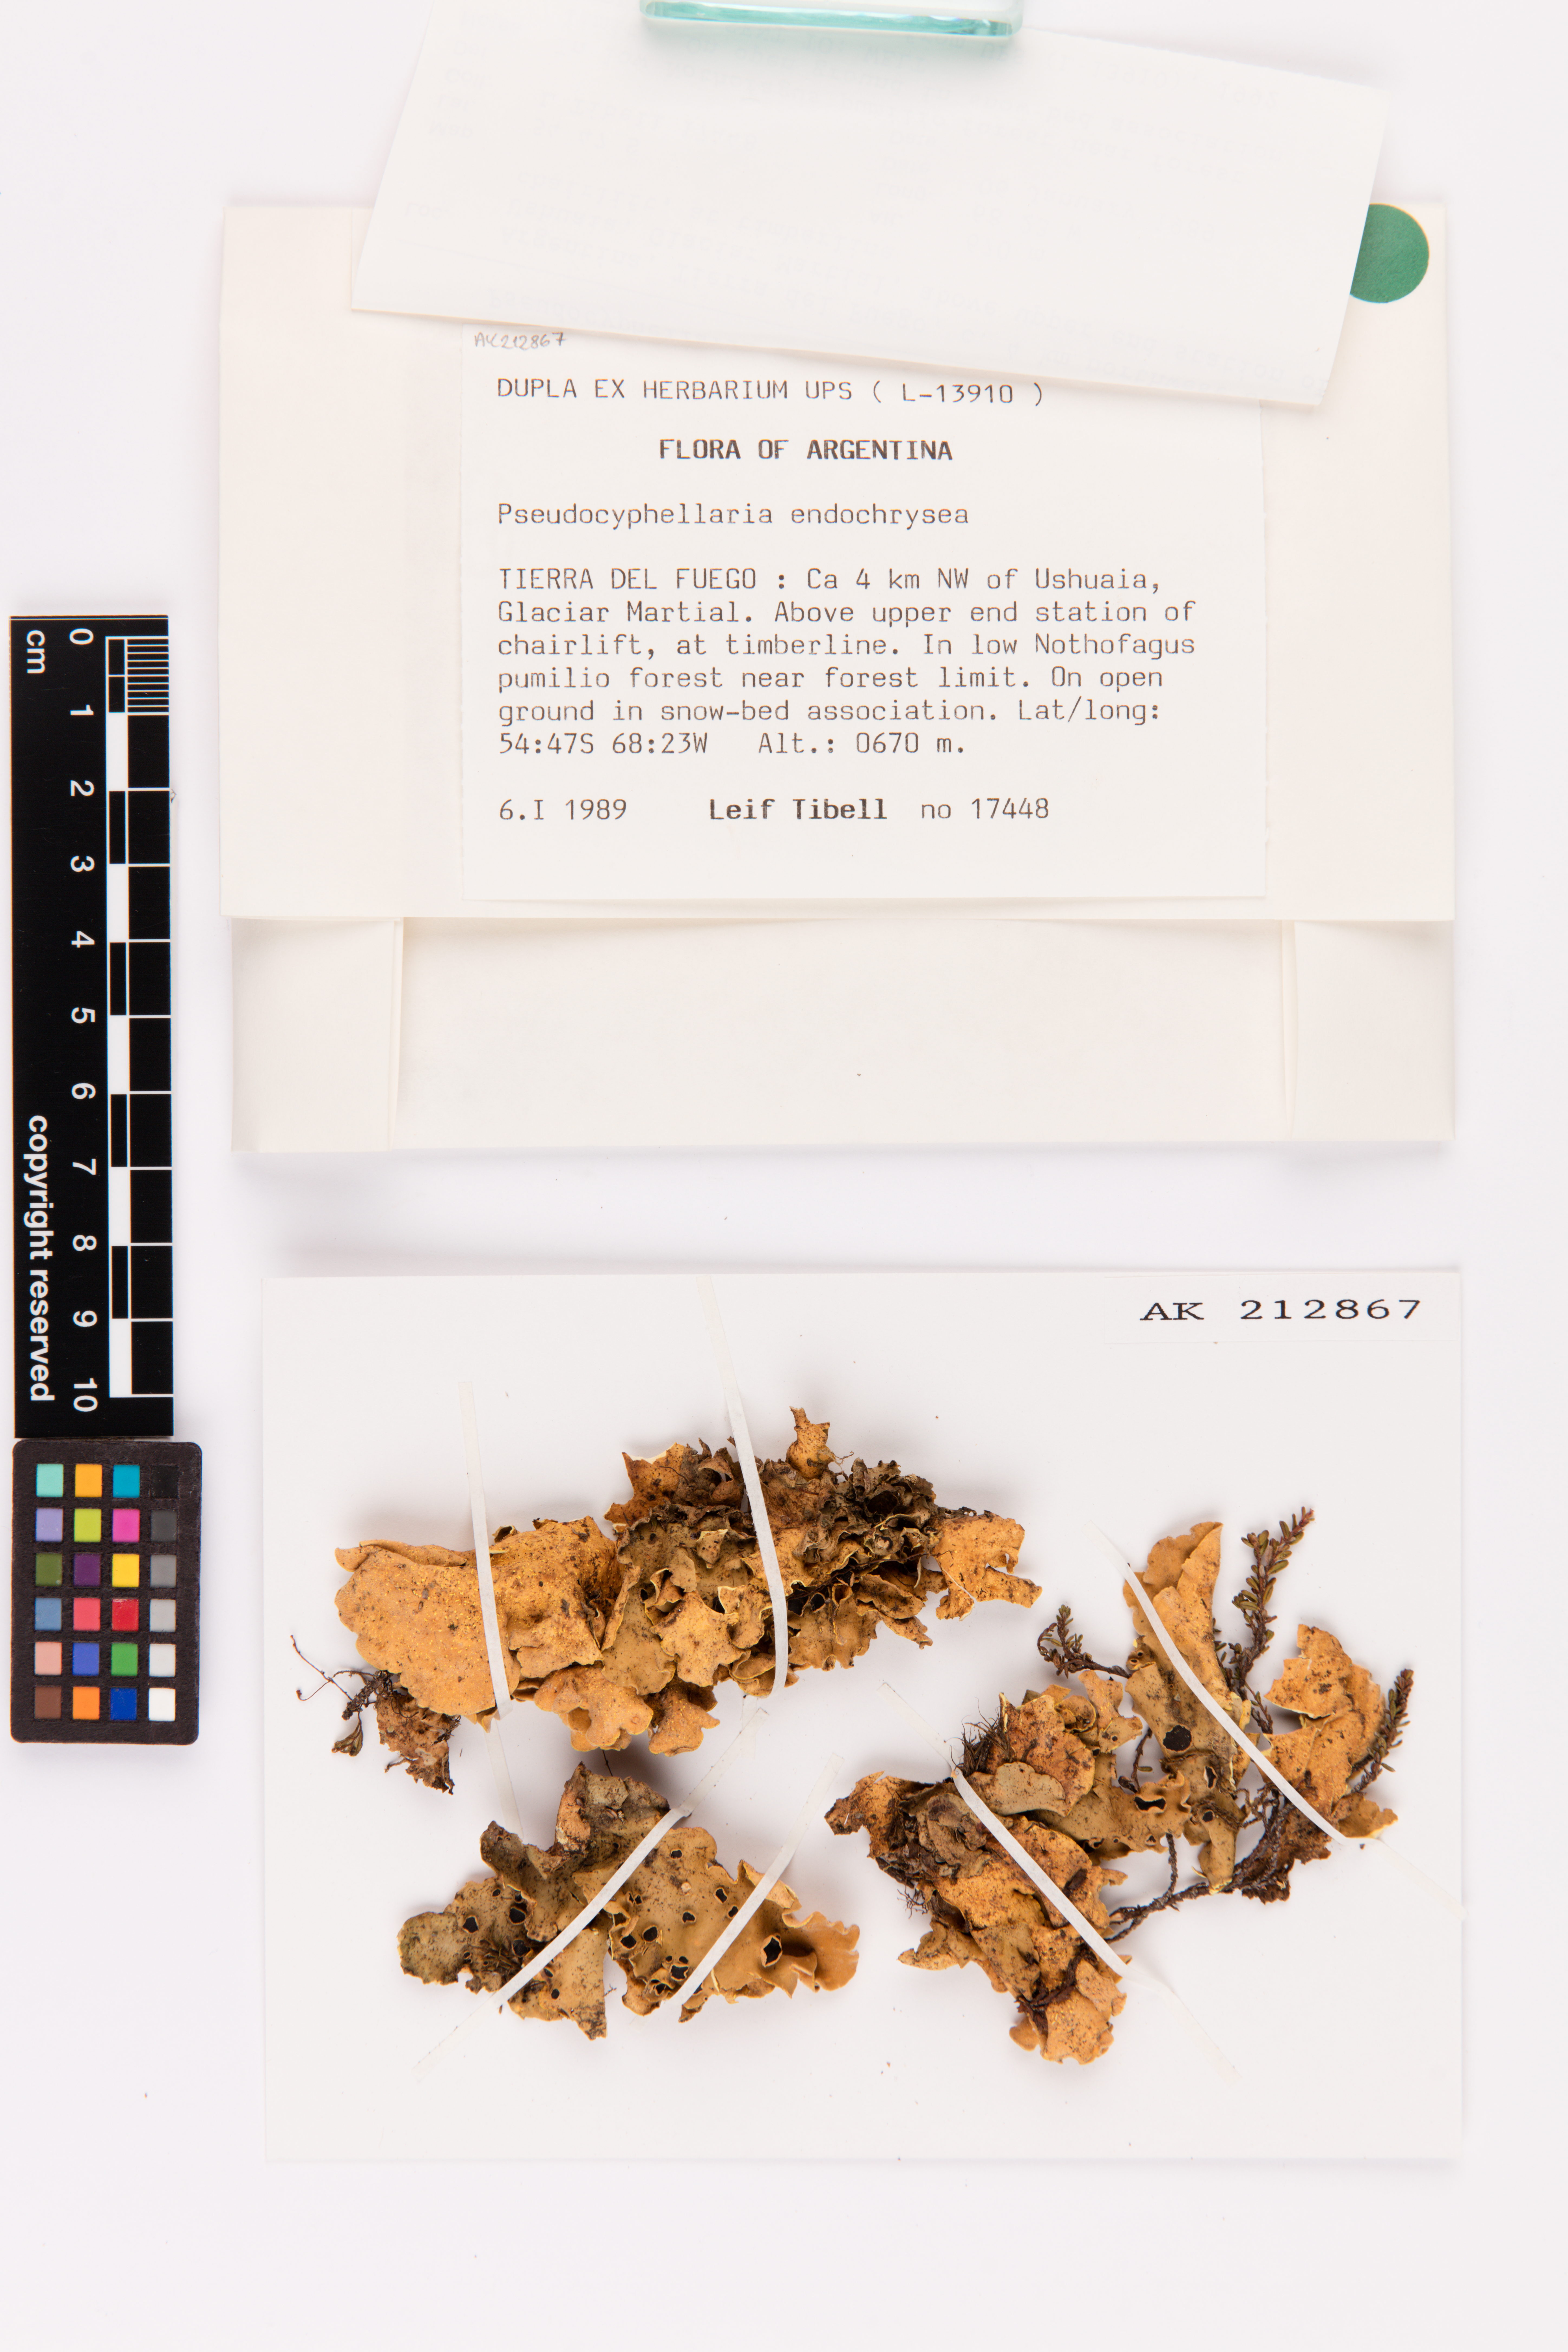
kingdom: Fungi
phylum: Ascomycota
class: Lecanoromycetes
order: Peltigerales
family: Lobariaceae
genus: Podostictina
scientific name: Podostictina endochrysa
